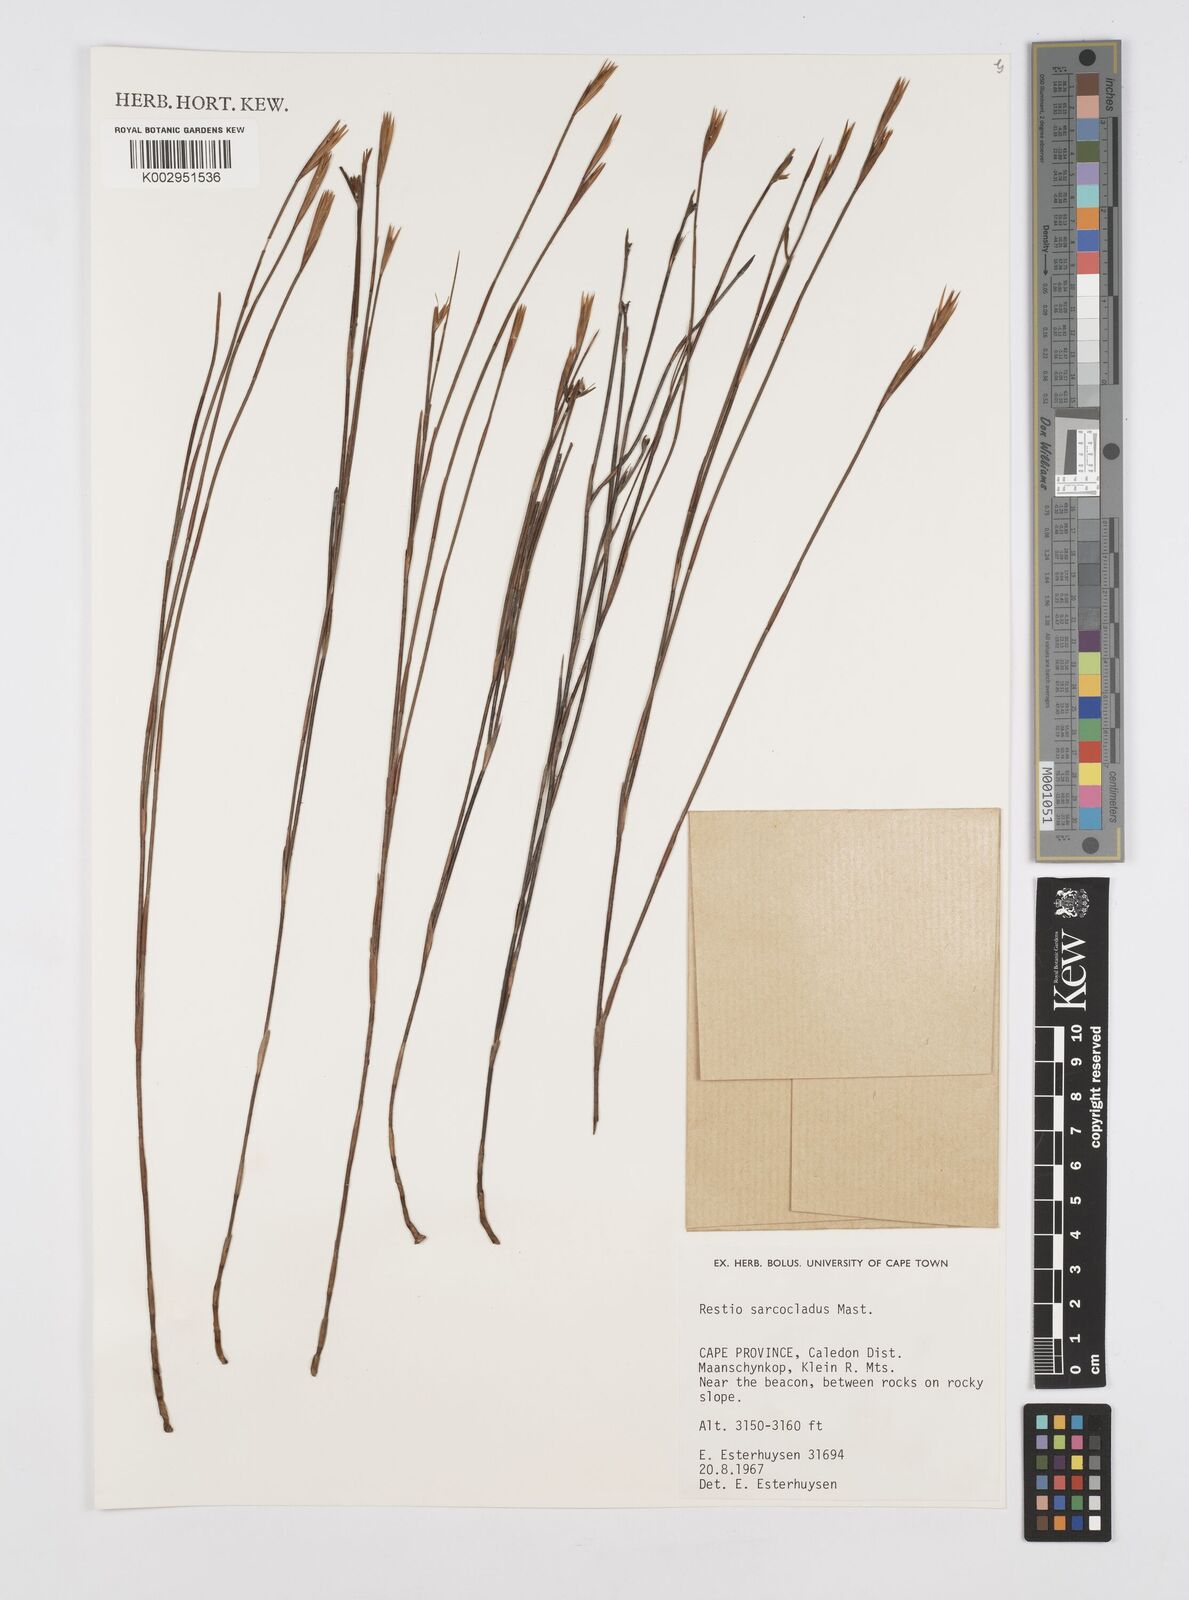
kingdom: Plantae
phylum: Tracheophyta
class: Liliopsida
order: Poales
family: Restionaceae
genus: Restio
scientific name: Restio saroclados
